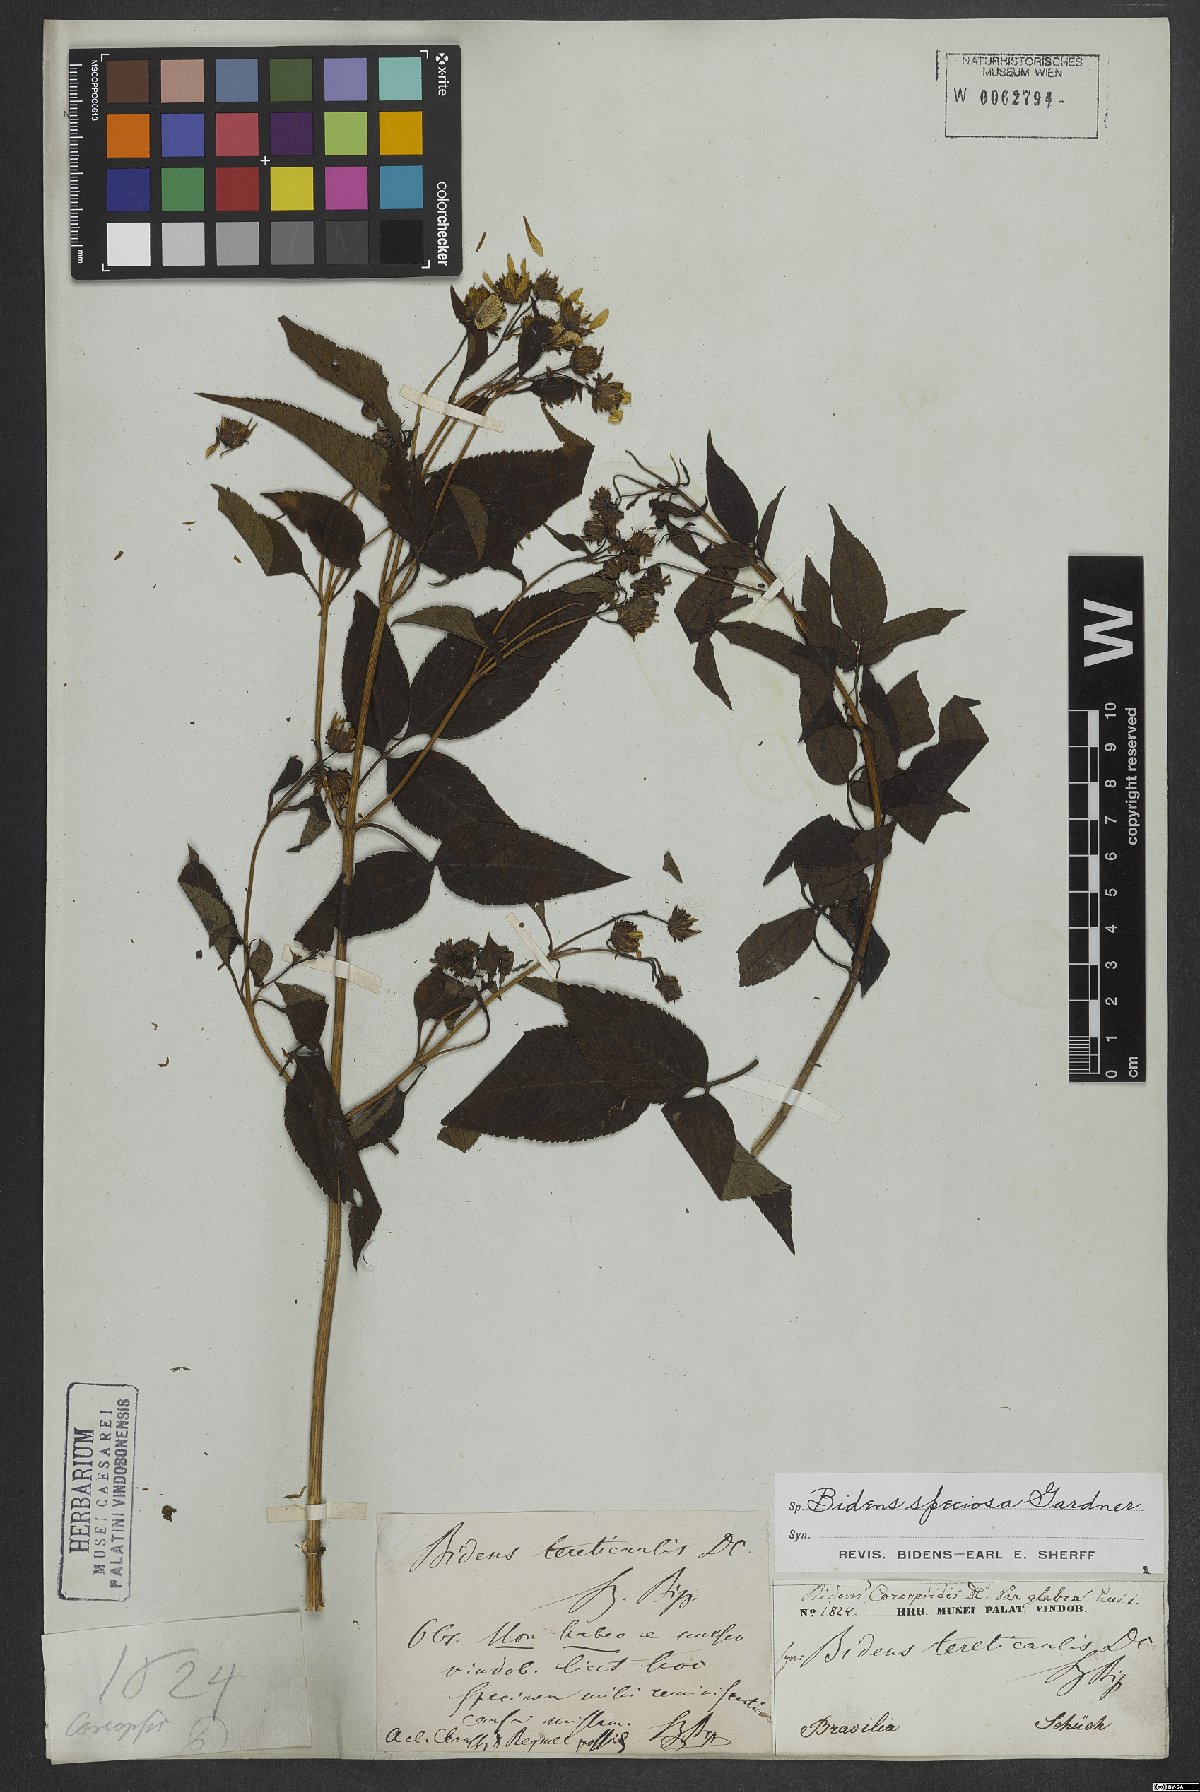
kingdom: Plantae
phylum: Tracheophyta
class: Magnoliopsida
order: Asterales
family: Asteraceae
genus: Bidens
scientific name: Bidens segetum
